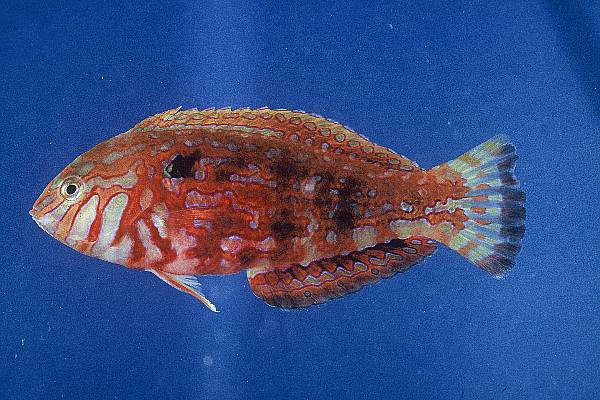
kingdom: Animalia
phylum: Chordata
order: Perciformes
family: Labridae
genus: Halichoeres
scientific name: Halichoeres lapillus
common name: Jewelled wrasse
